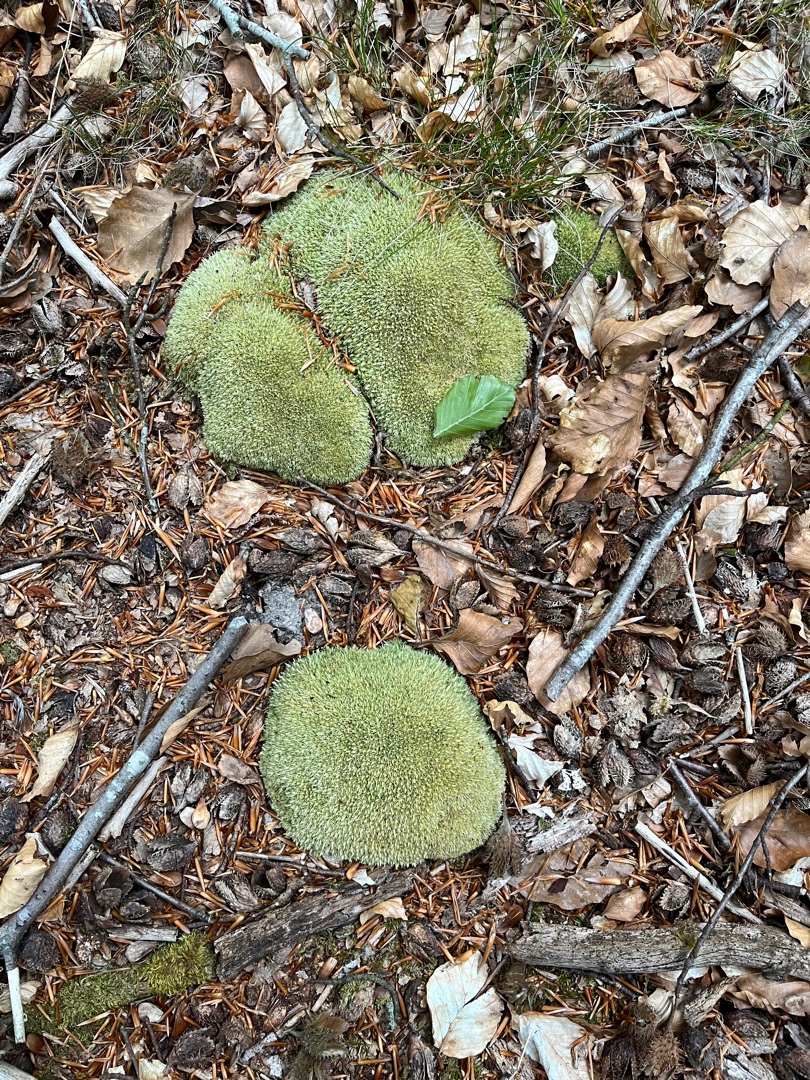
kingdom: Plantae
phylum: Bryophyta
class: Bryopsida
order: Dicranales
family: Leucobryaceae
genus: Leucobryum
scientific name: Leucobryum glaucum
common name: Almindelig hvidmos
